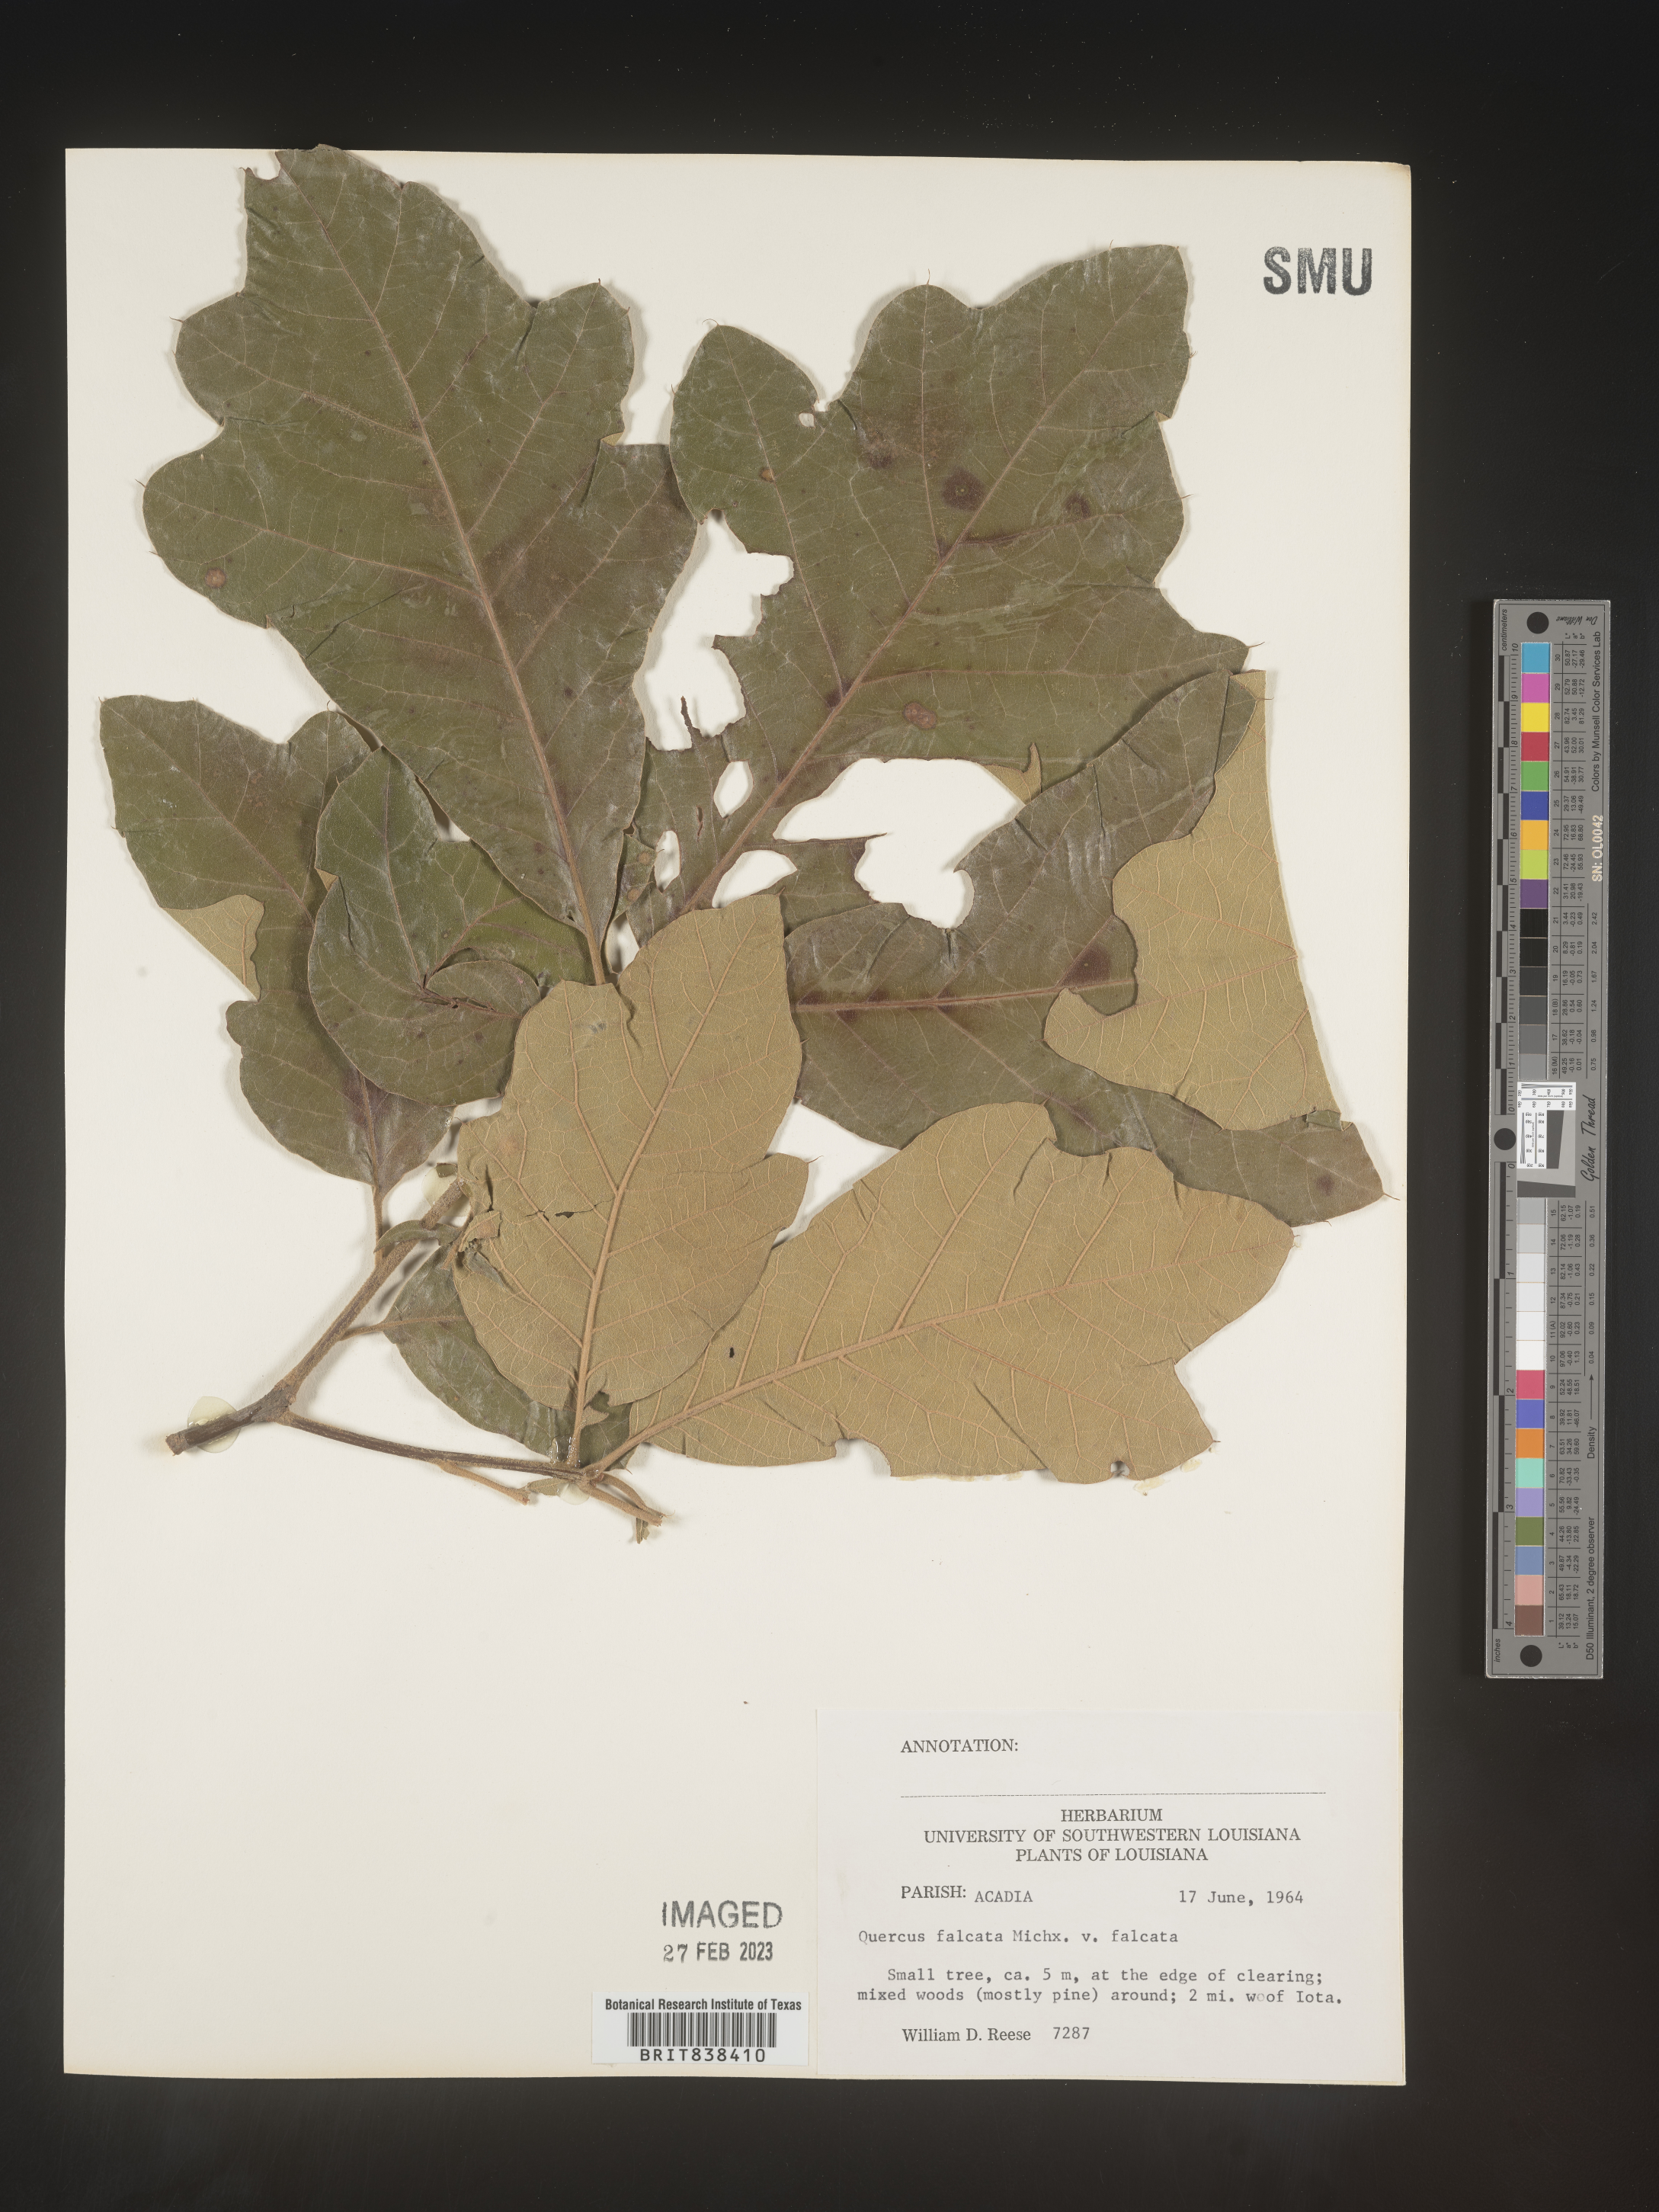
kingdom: Plantae
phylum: Tracheophyta
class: Magnoliopsida
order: Fagales
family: Fagaceae
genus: Quercus
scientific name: Quercus falcata
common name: Southern red oak
